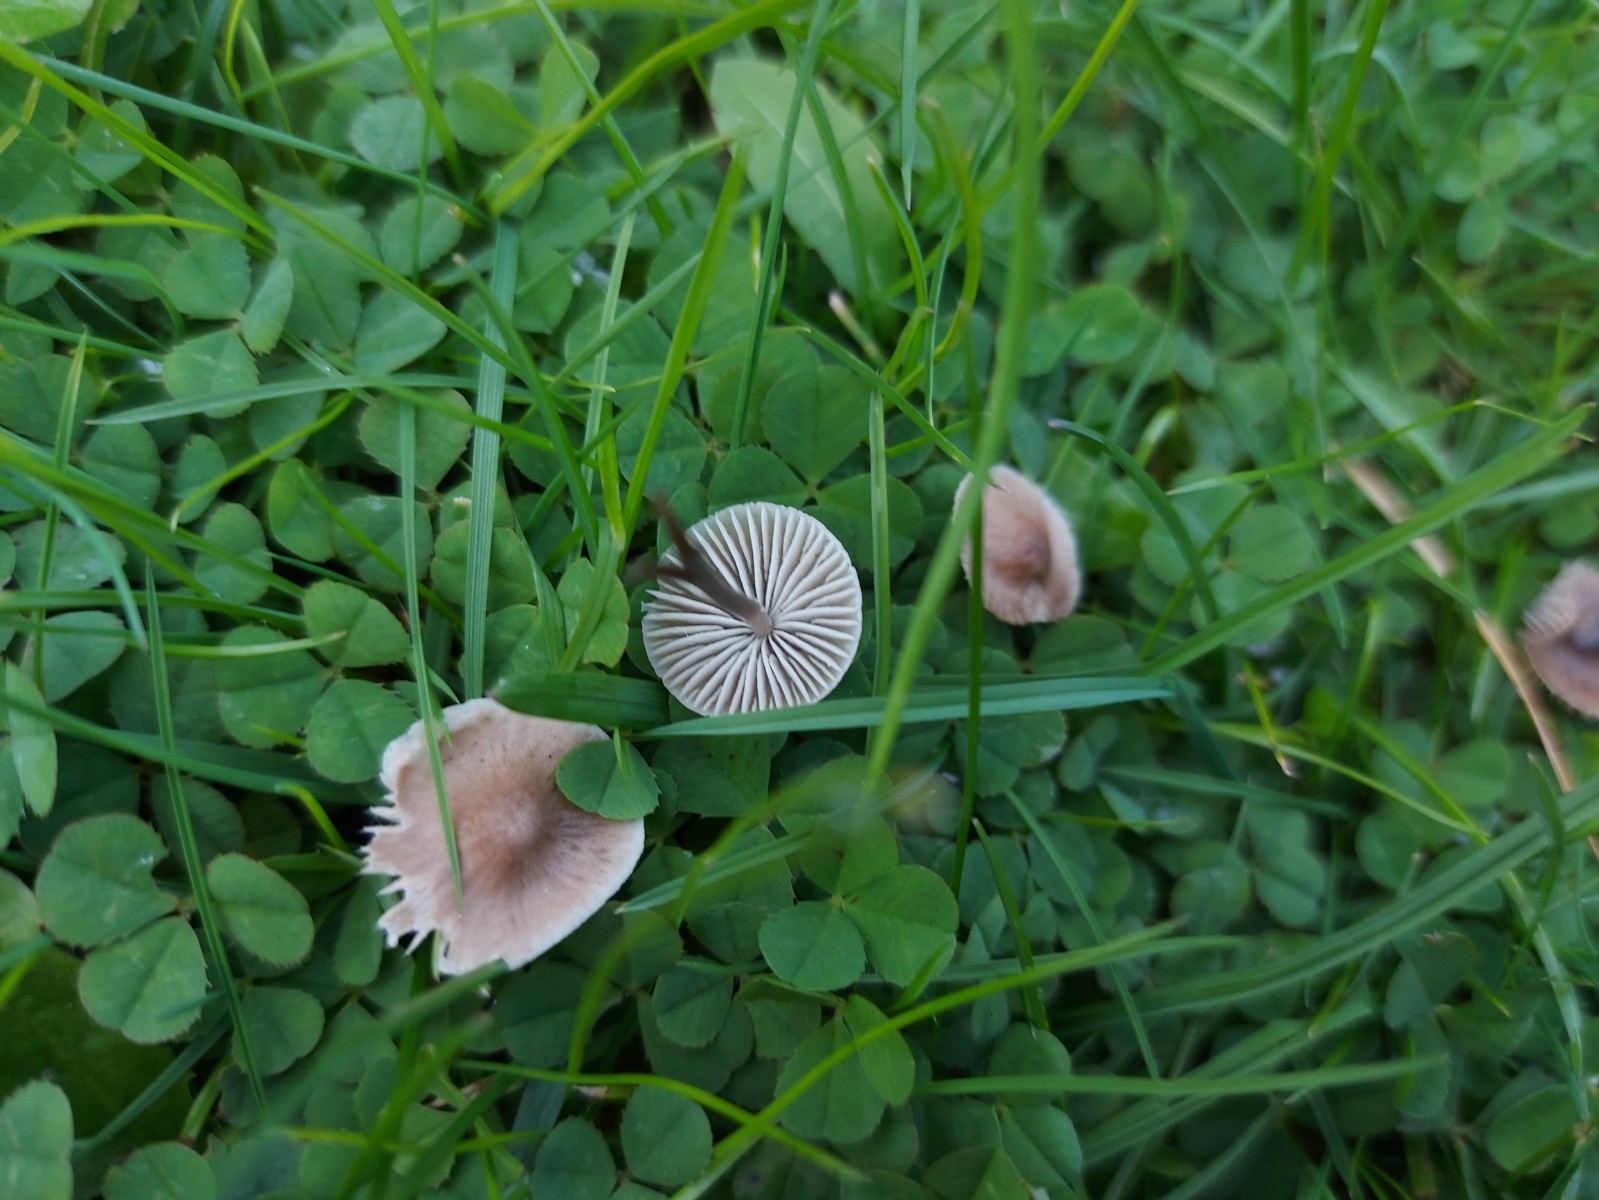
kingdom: Fungi
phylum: Basidiomycota
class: Agaricomycetes
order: Agaricales
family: Mycenaceae
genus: Mycena
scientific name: Mycena
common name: huesvamp
